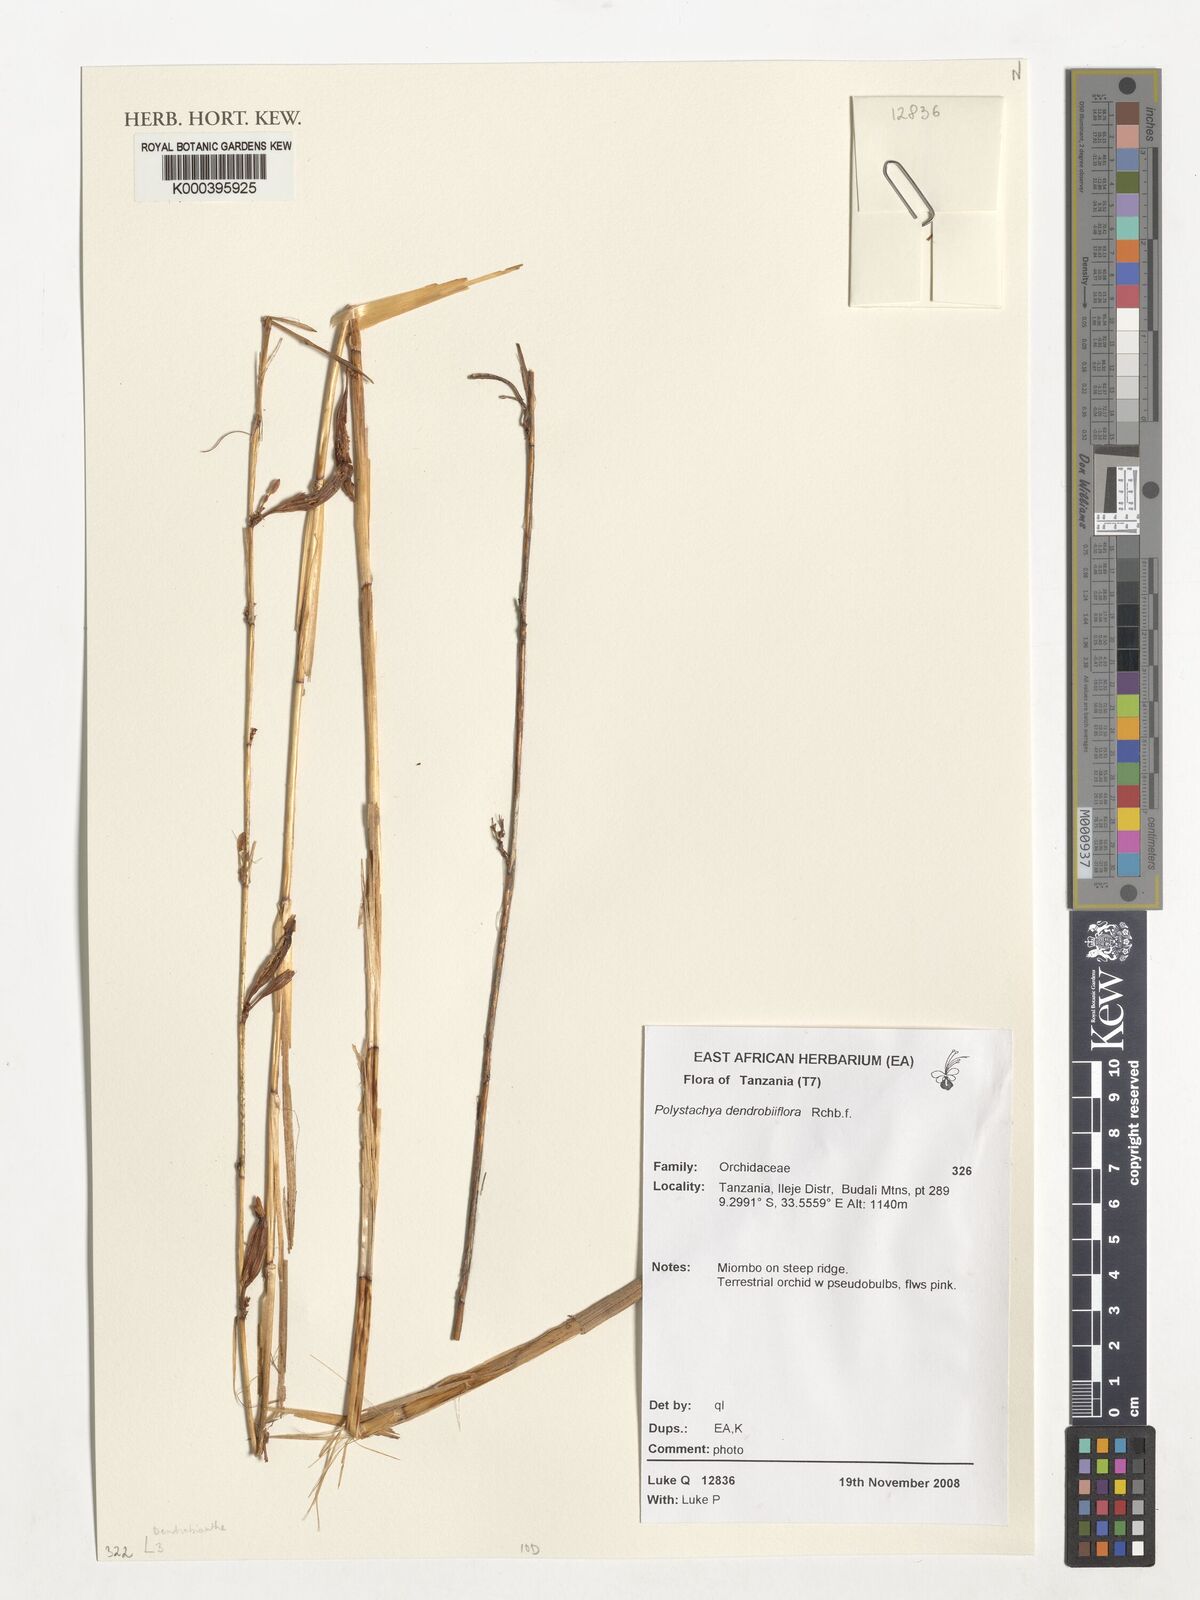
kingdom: Plantae
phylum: Tracheophyta
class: Liliopsida
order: Asparagales
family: Orchidaceae
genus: Polystachya
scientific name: Polystachya dendrobiiflora
